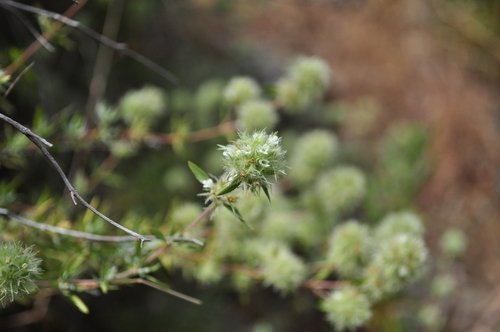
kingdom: Plantae
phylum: Tracheophyta
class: Magnoliopsida
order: Lamiales
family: Lamiaceae
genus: Thymus
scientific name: Thymus mastichina
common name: Mastic thyme
